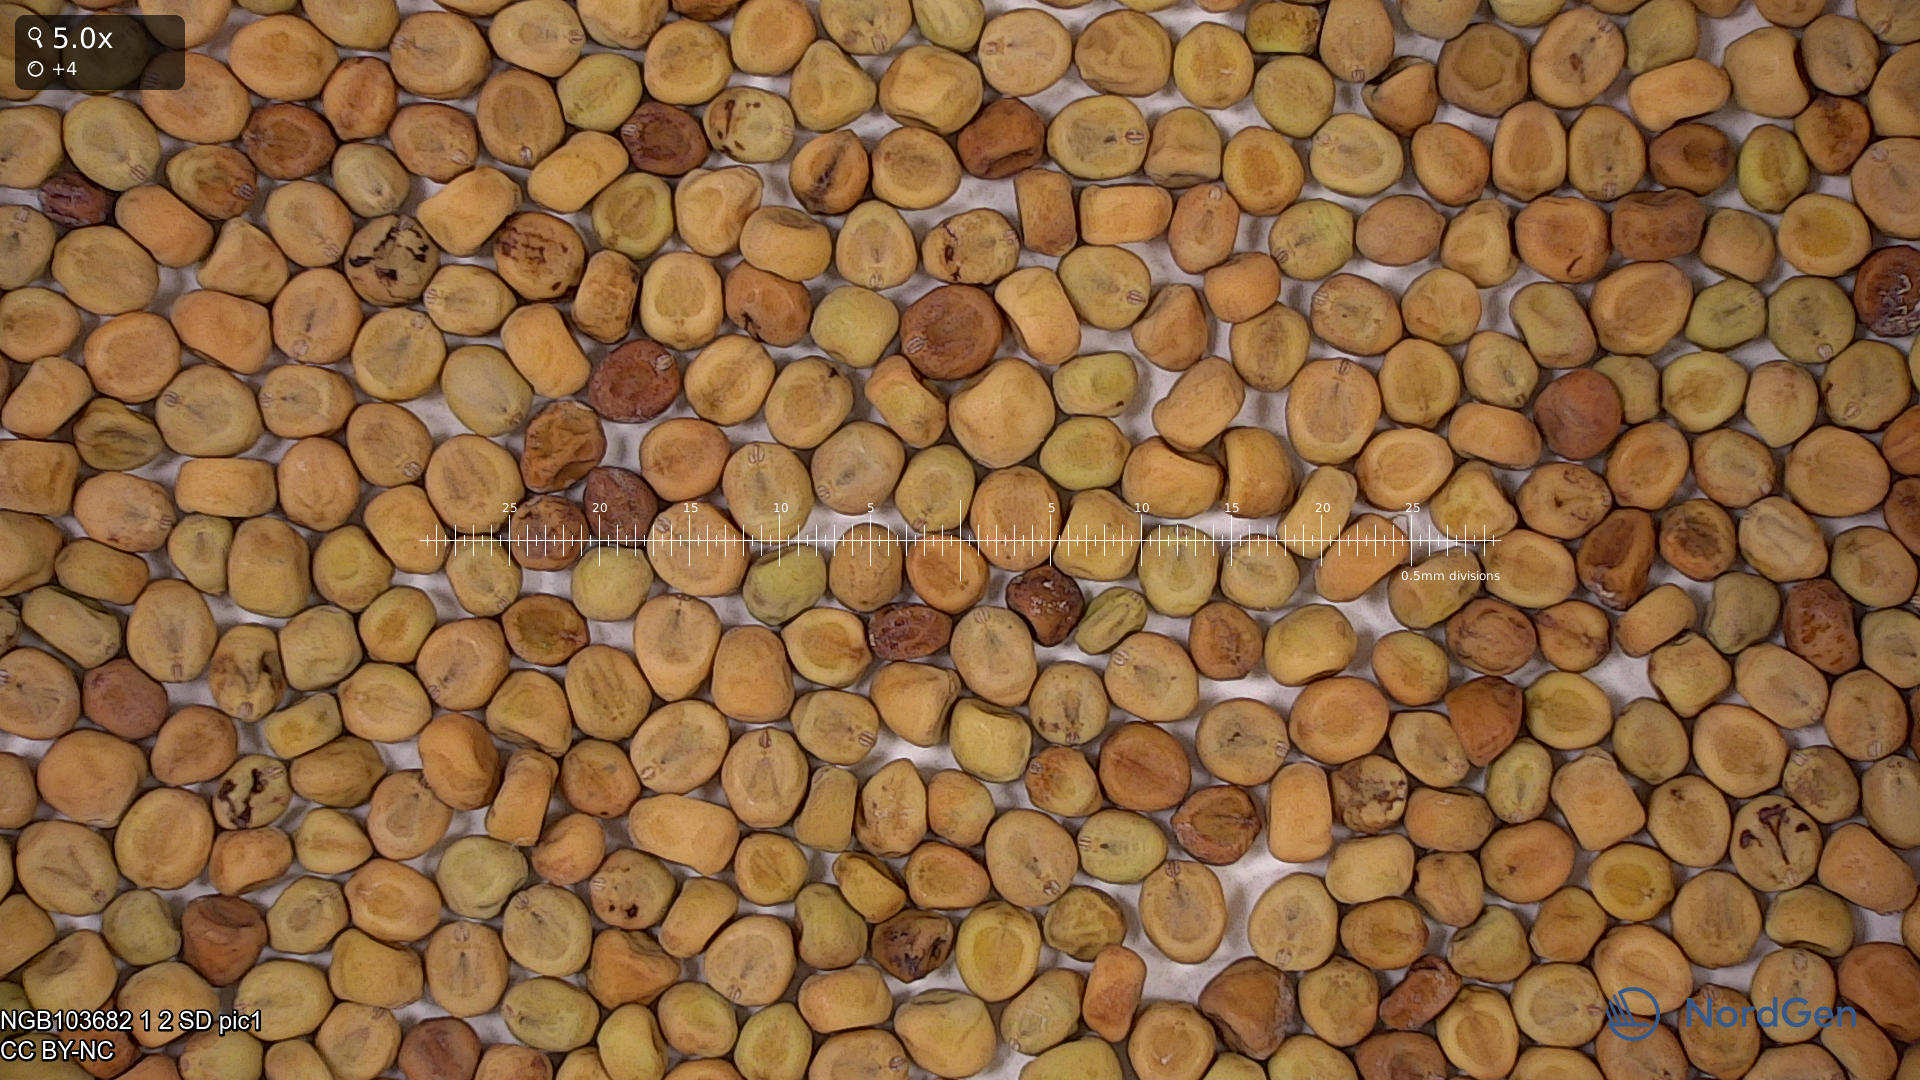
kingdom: Plantae
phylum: Tracheophyta
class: Magnoliopsida
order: Fabales
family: Fabaceae
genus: Lathyrus
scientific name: Lathyrus oleraceus
